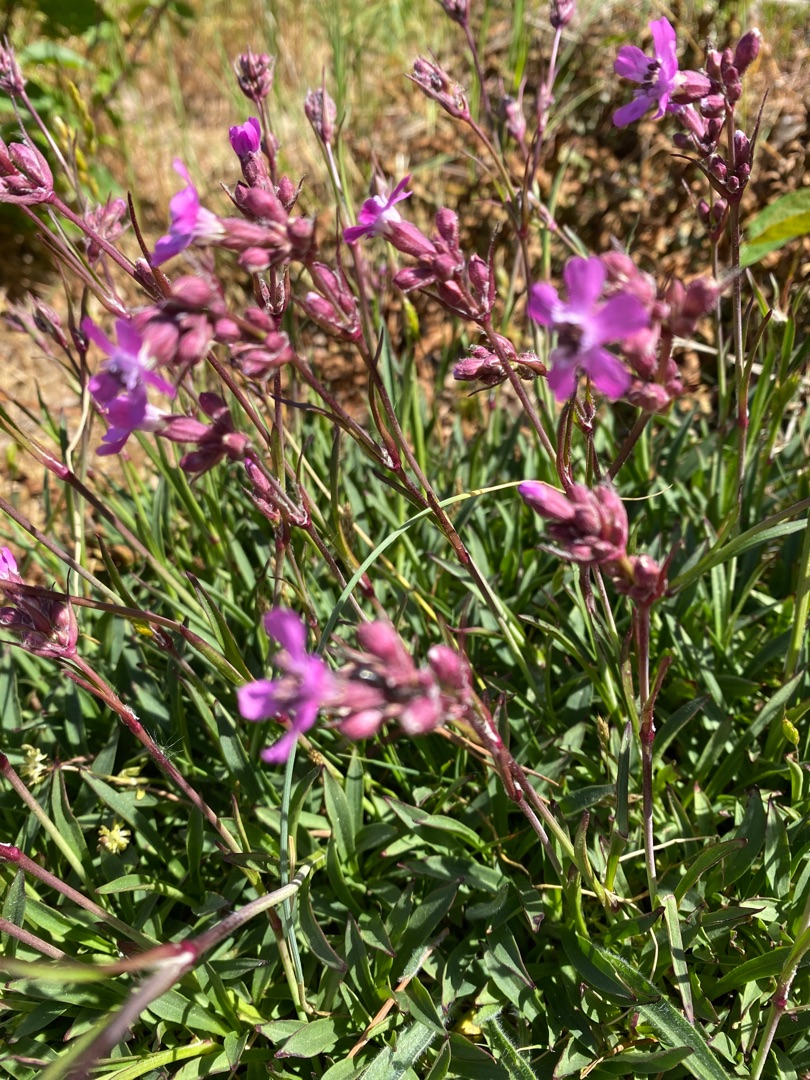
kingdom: Plantae
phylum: Tracheophyta
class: Magnoliopsida
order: Caryophyllales
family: Caryophyllaceae
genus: Viscaria
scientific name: Viscaria vulgaris
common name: Tjærenellike
